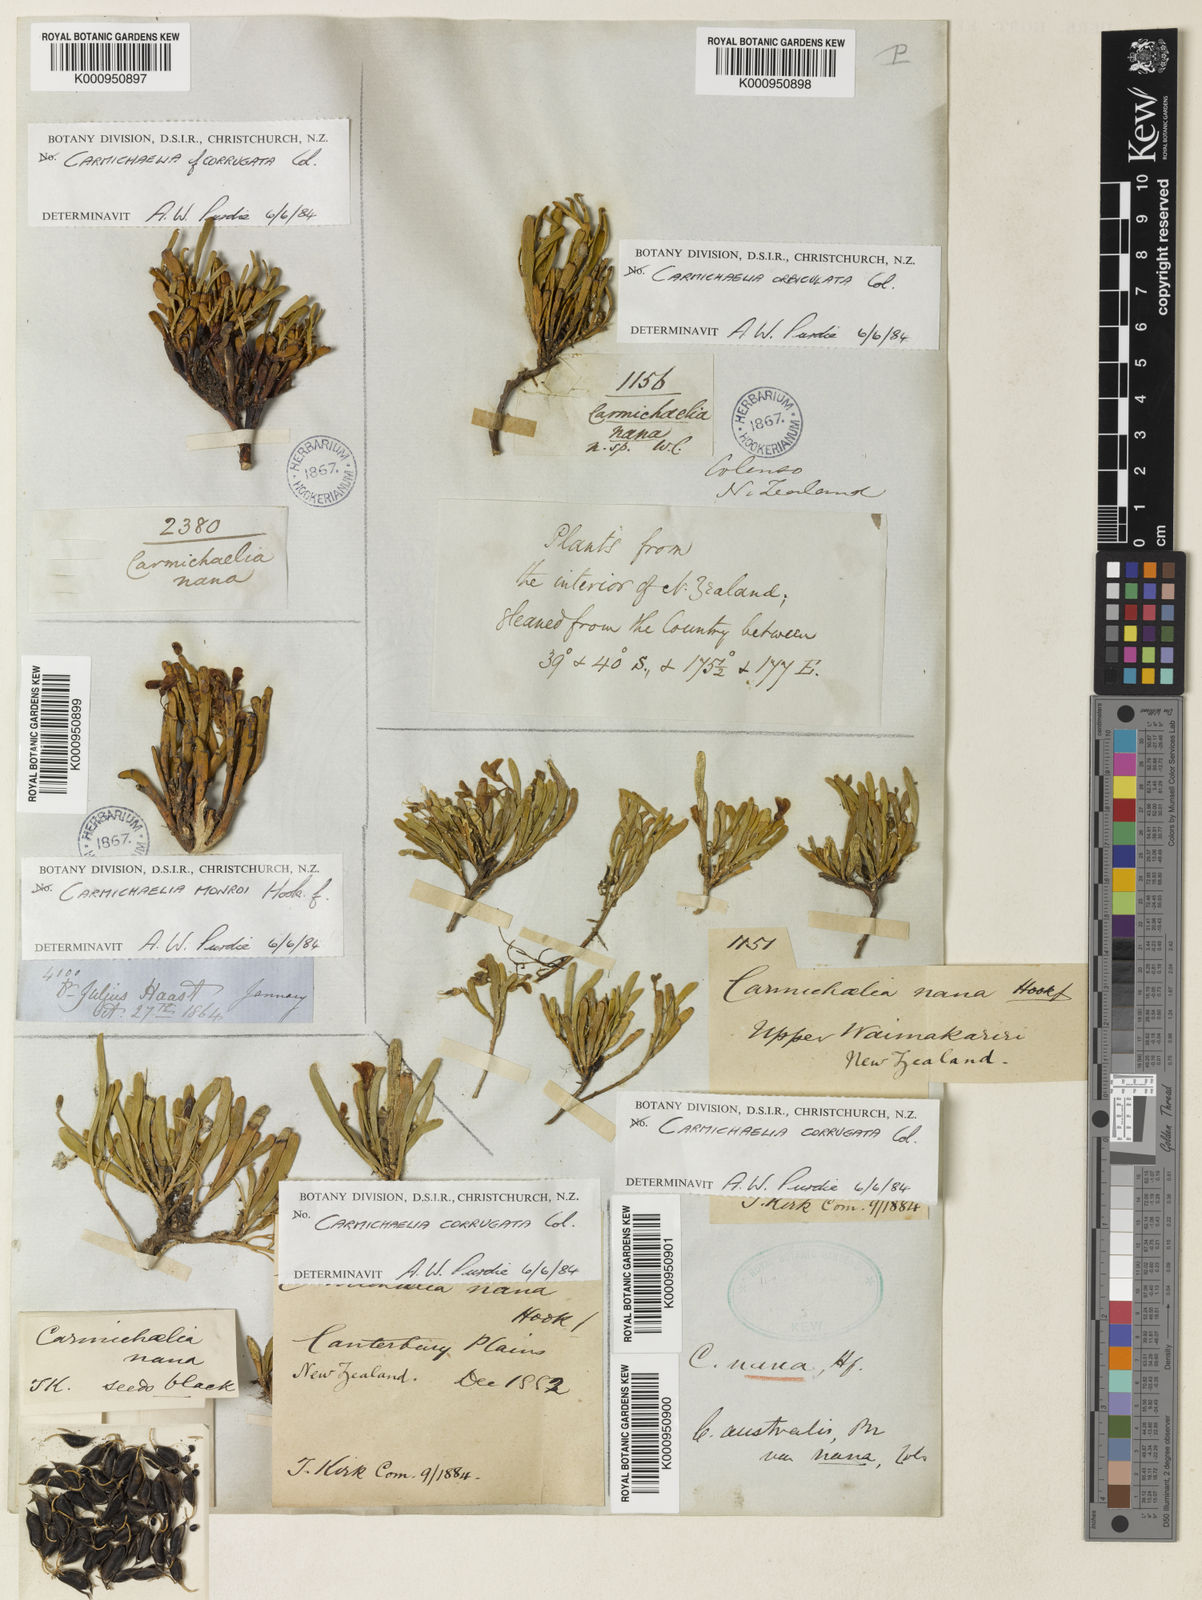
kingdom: Plantae
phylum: Tracheophyta
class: Magnoliopsida
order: Fabales
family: Fabaceae
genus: Carmichaelia
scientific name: Carmichaelia corrugata
